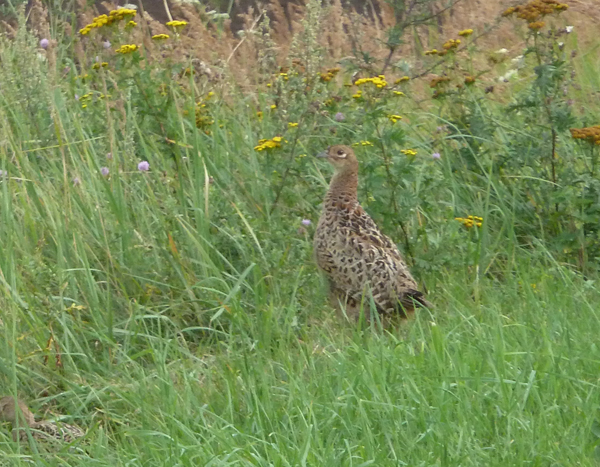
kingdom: Animalia
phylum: Chordata
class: Aves
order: Galliformes
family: Phasianidae
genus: Phasianus
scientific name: Phasianus colchicus
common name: Common pheasant
